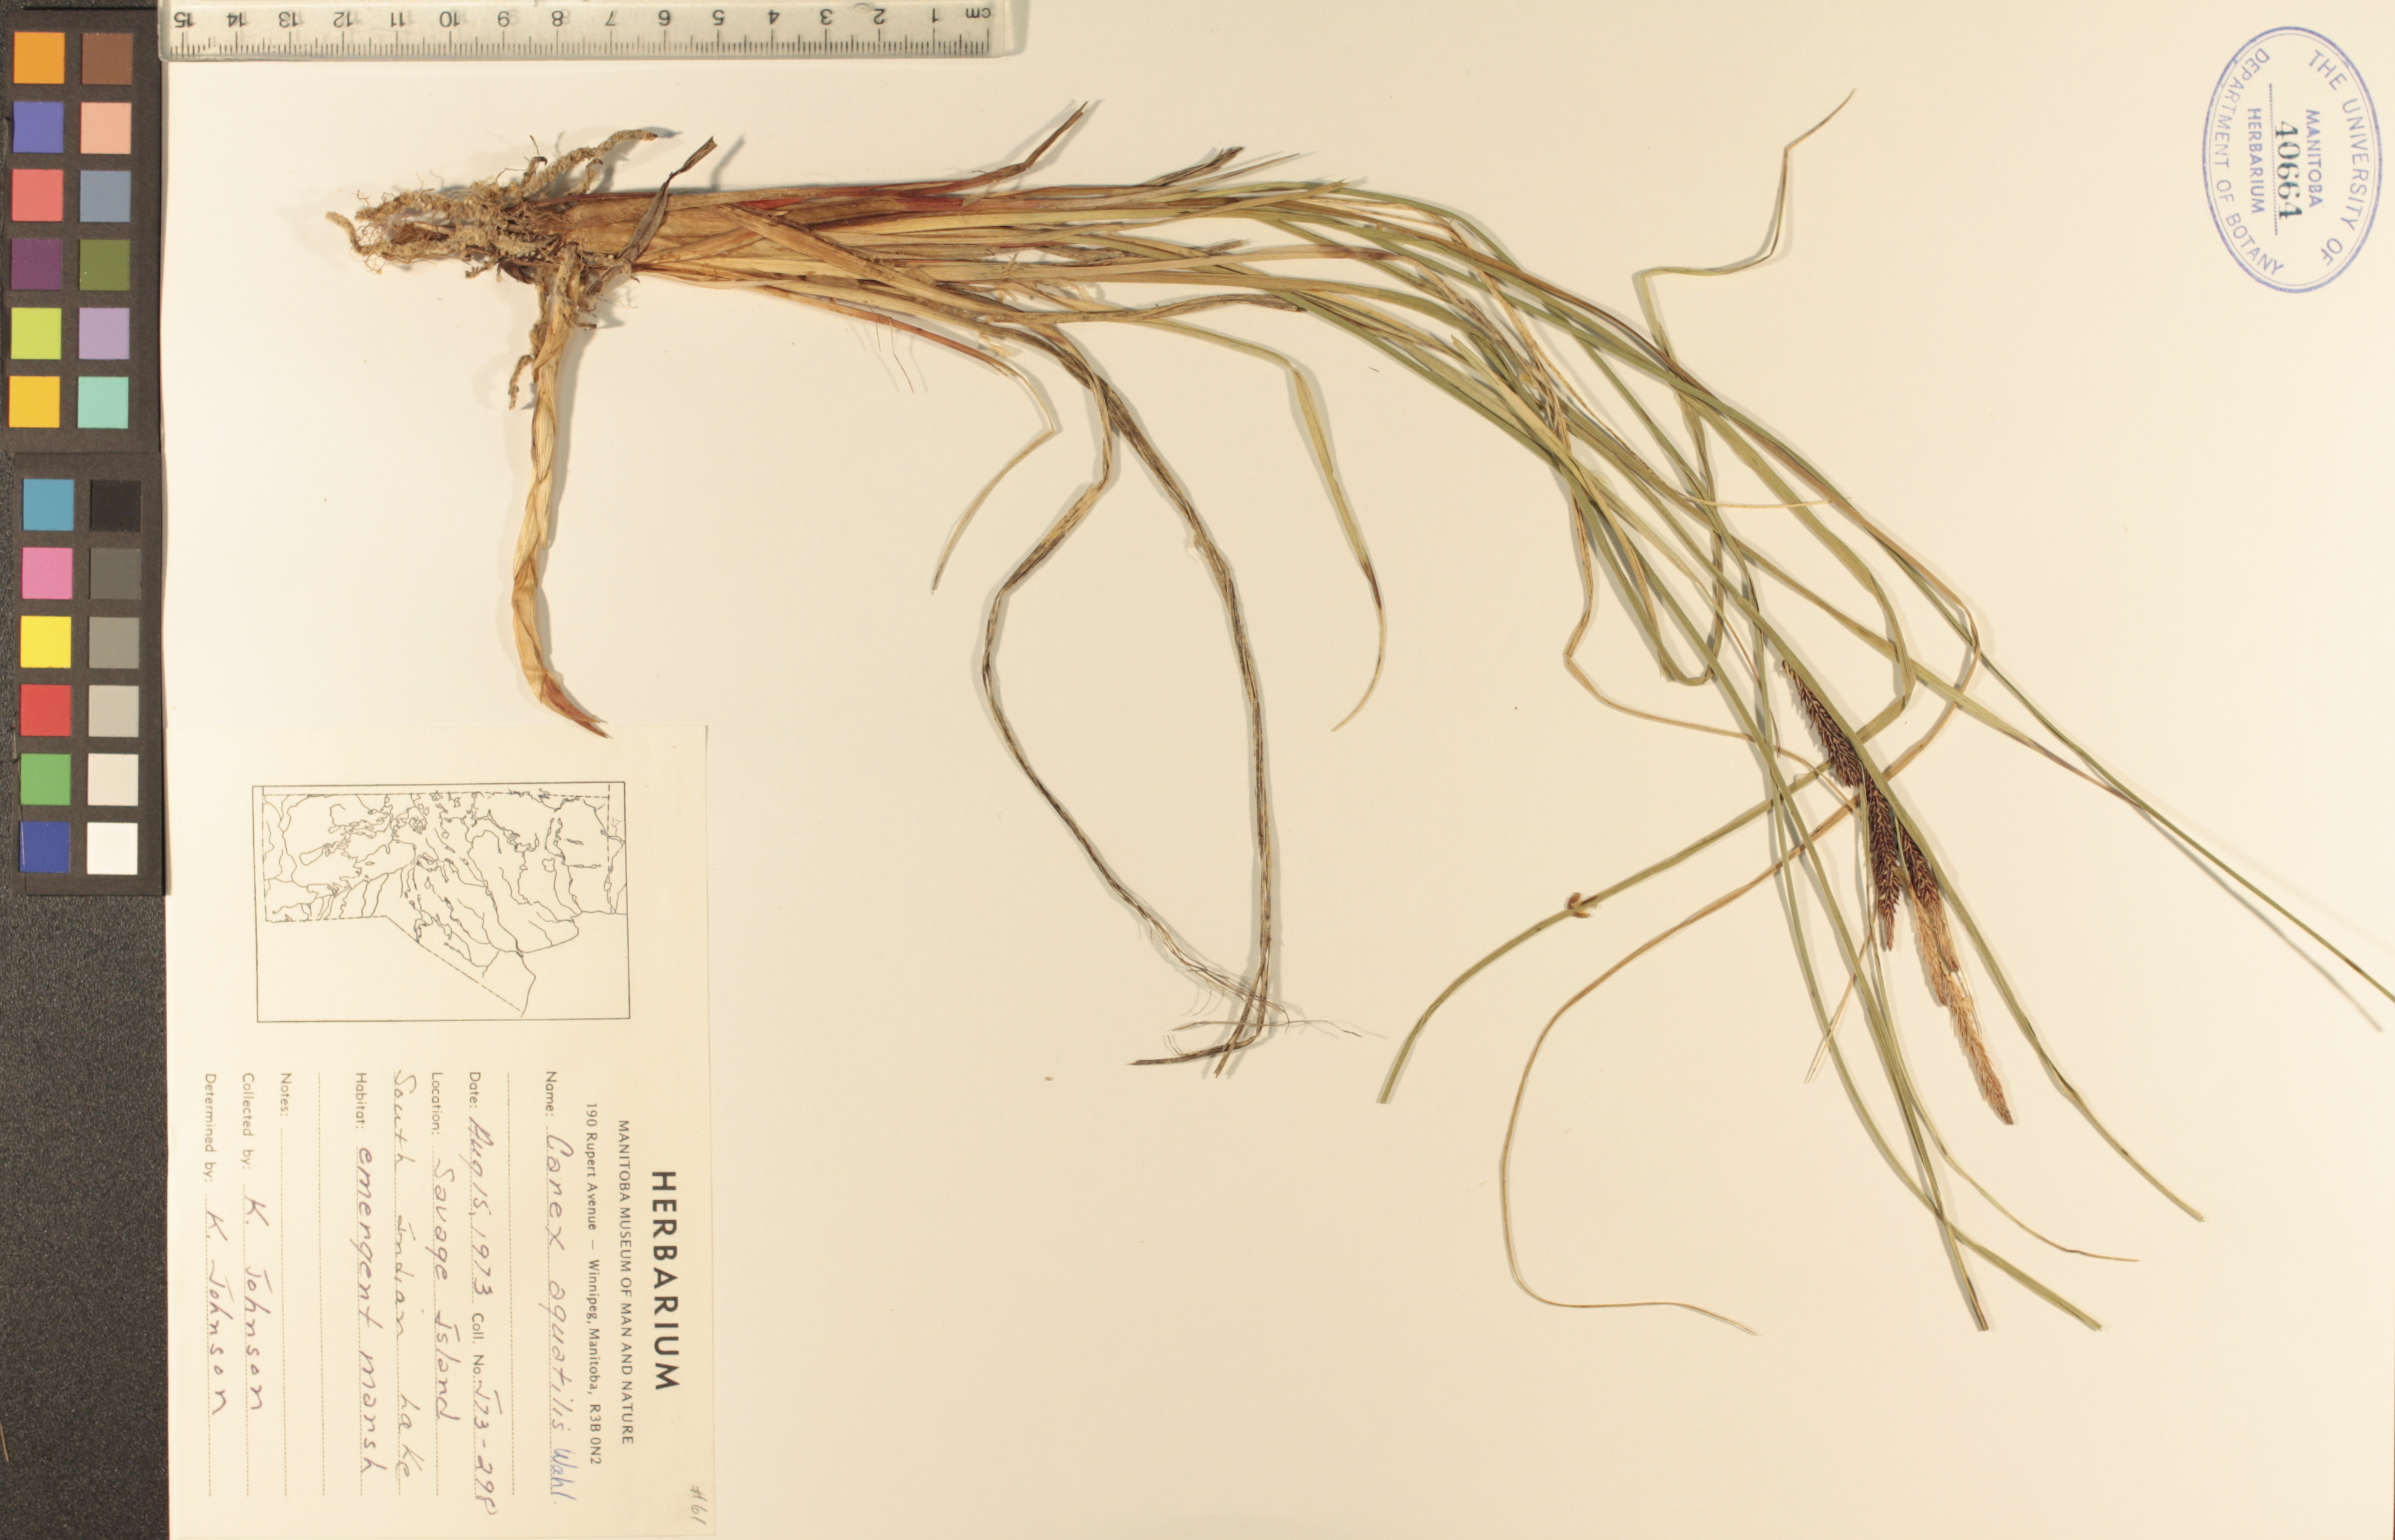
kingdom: Plantae
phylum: Tracheophyta
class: Liliopsida
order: Poales
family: Cyperaceae
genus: Carex
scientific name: Carex aquatilis
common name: Water sedge
